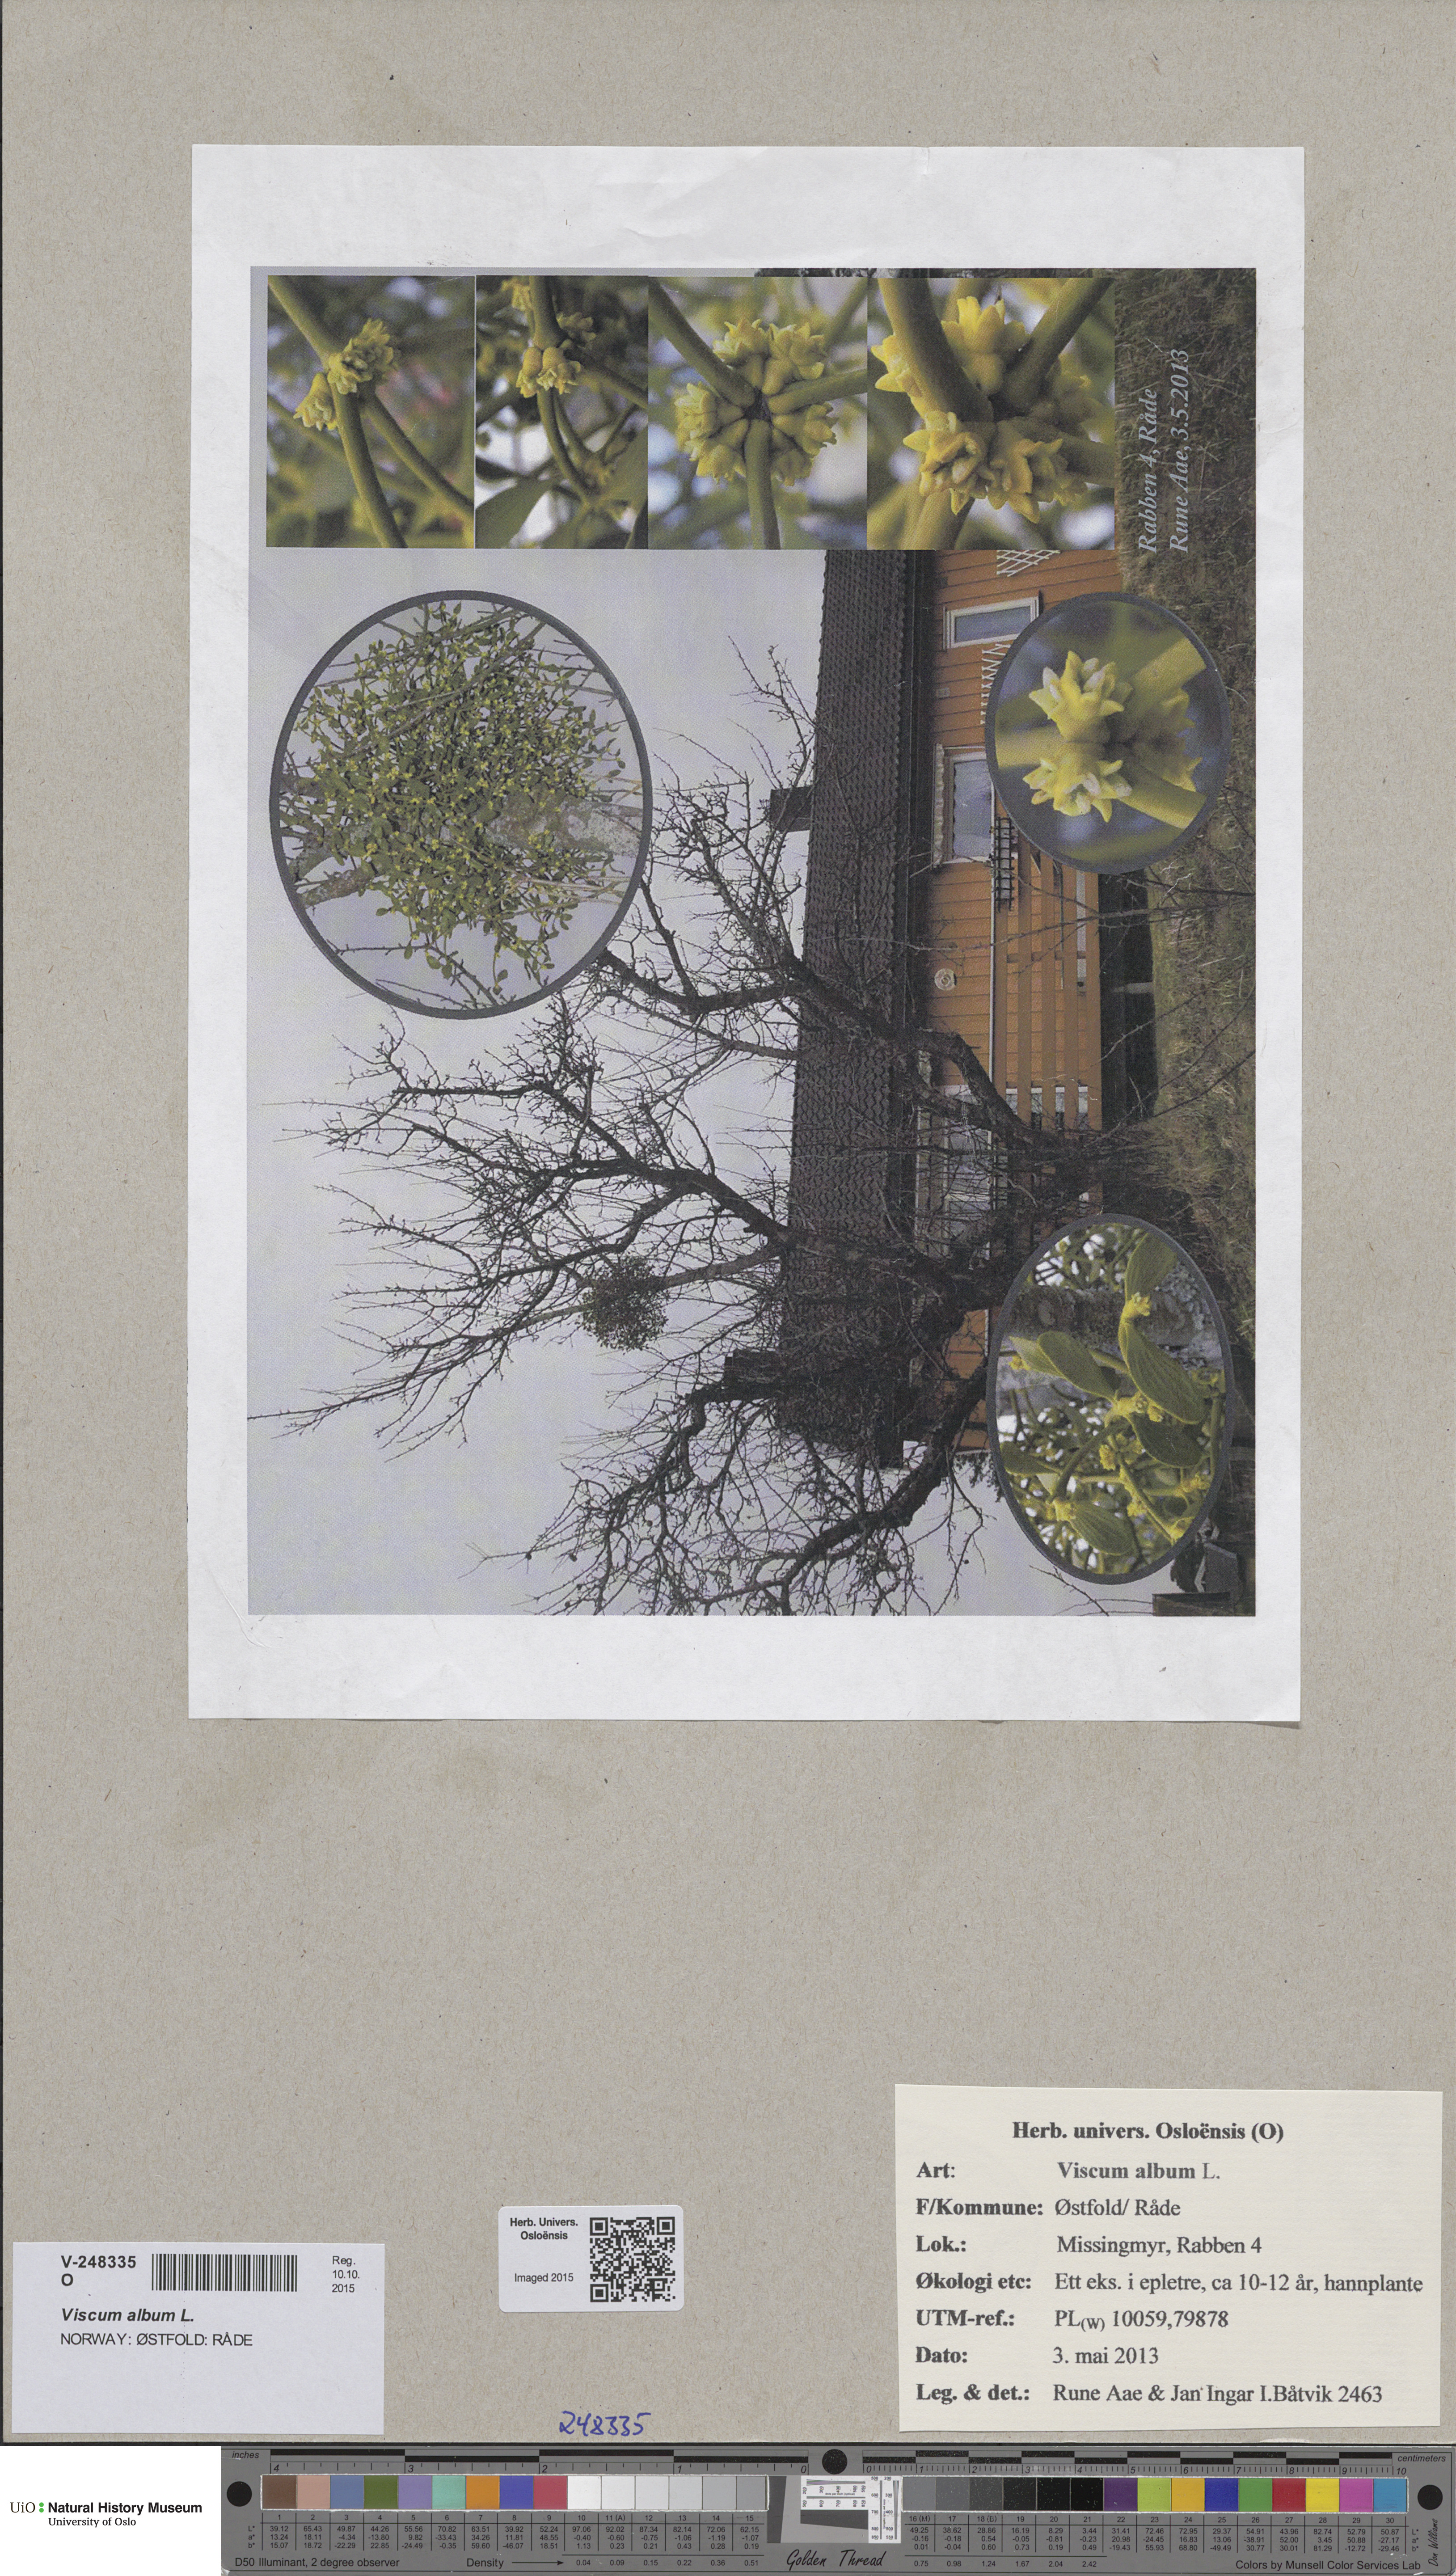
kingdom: Plantae
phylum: Tracheophyta
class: Magnoliopsida
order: Santalales
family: Viscaceae
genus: Viscum
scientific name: Viscum album
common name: Mistletoe
